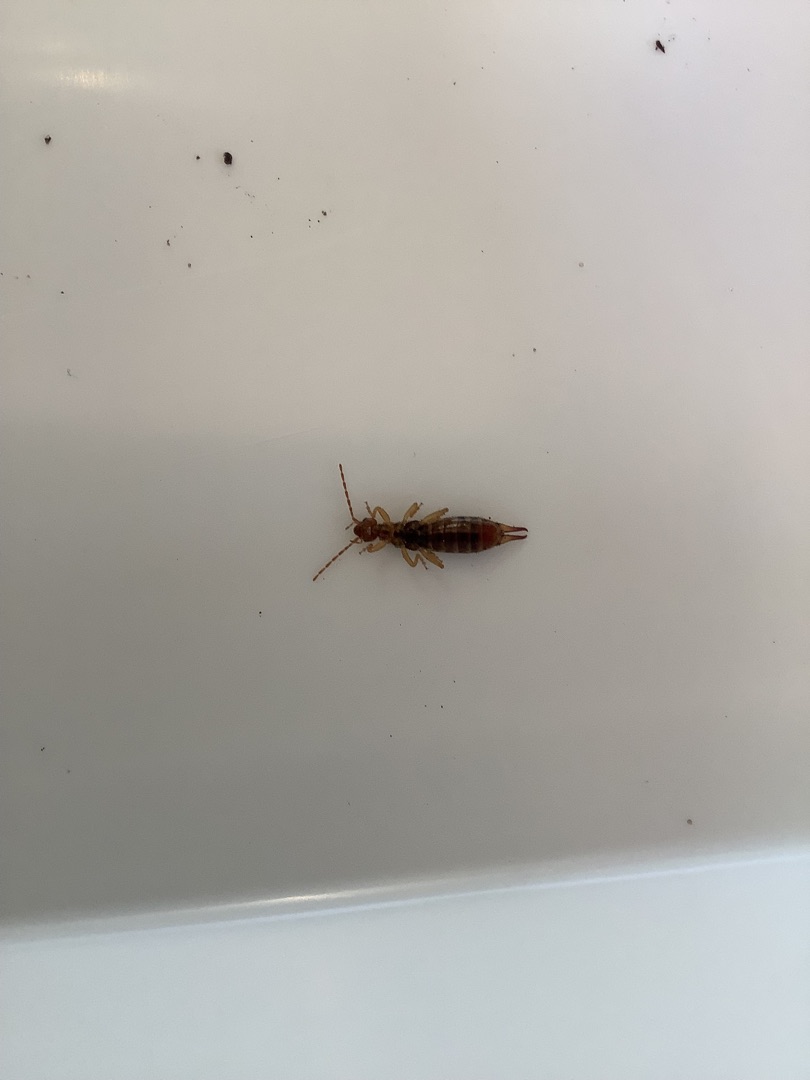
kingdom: Animalia
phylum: Arthropoda
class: Insecta
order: Dermaptera
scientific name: Dermaptera
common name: Ørentviste
